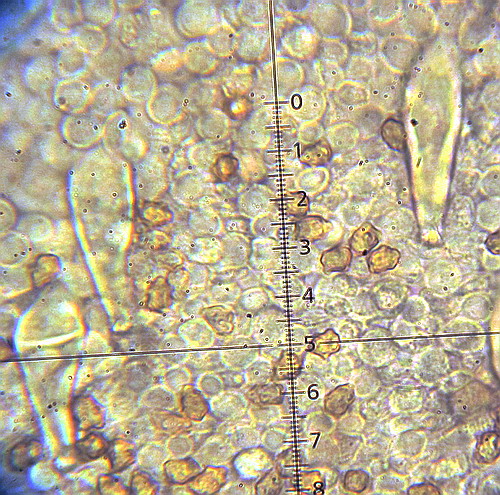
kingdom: Fungi
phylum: Basidiomycota
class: Agaricomycetes
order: Agaricales
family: Inocybaceae
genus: Inocybe
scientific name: Inocybe petiginosa
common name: liden trævlhat
